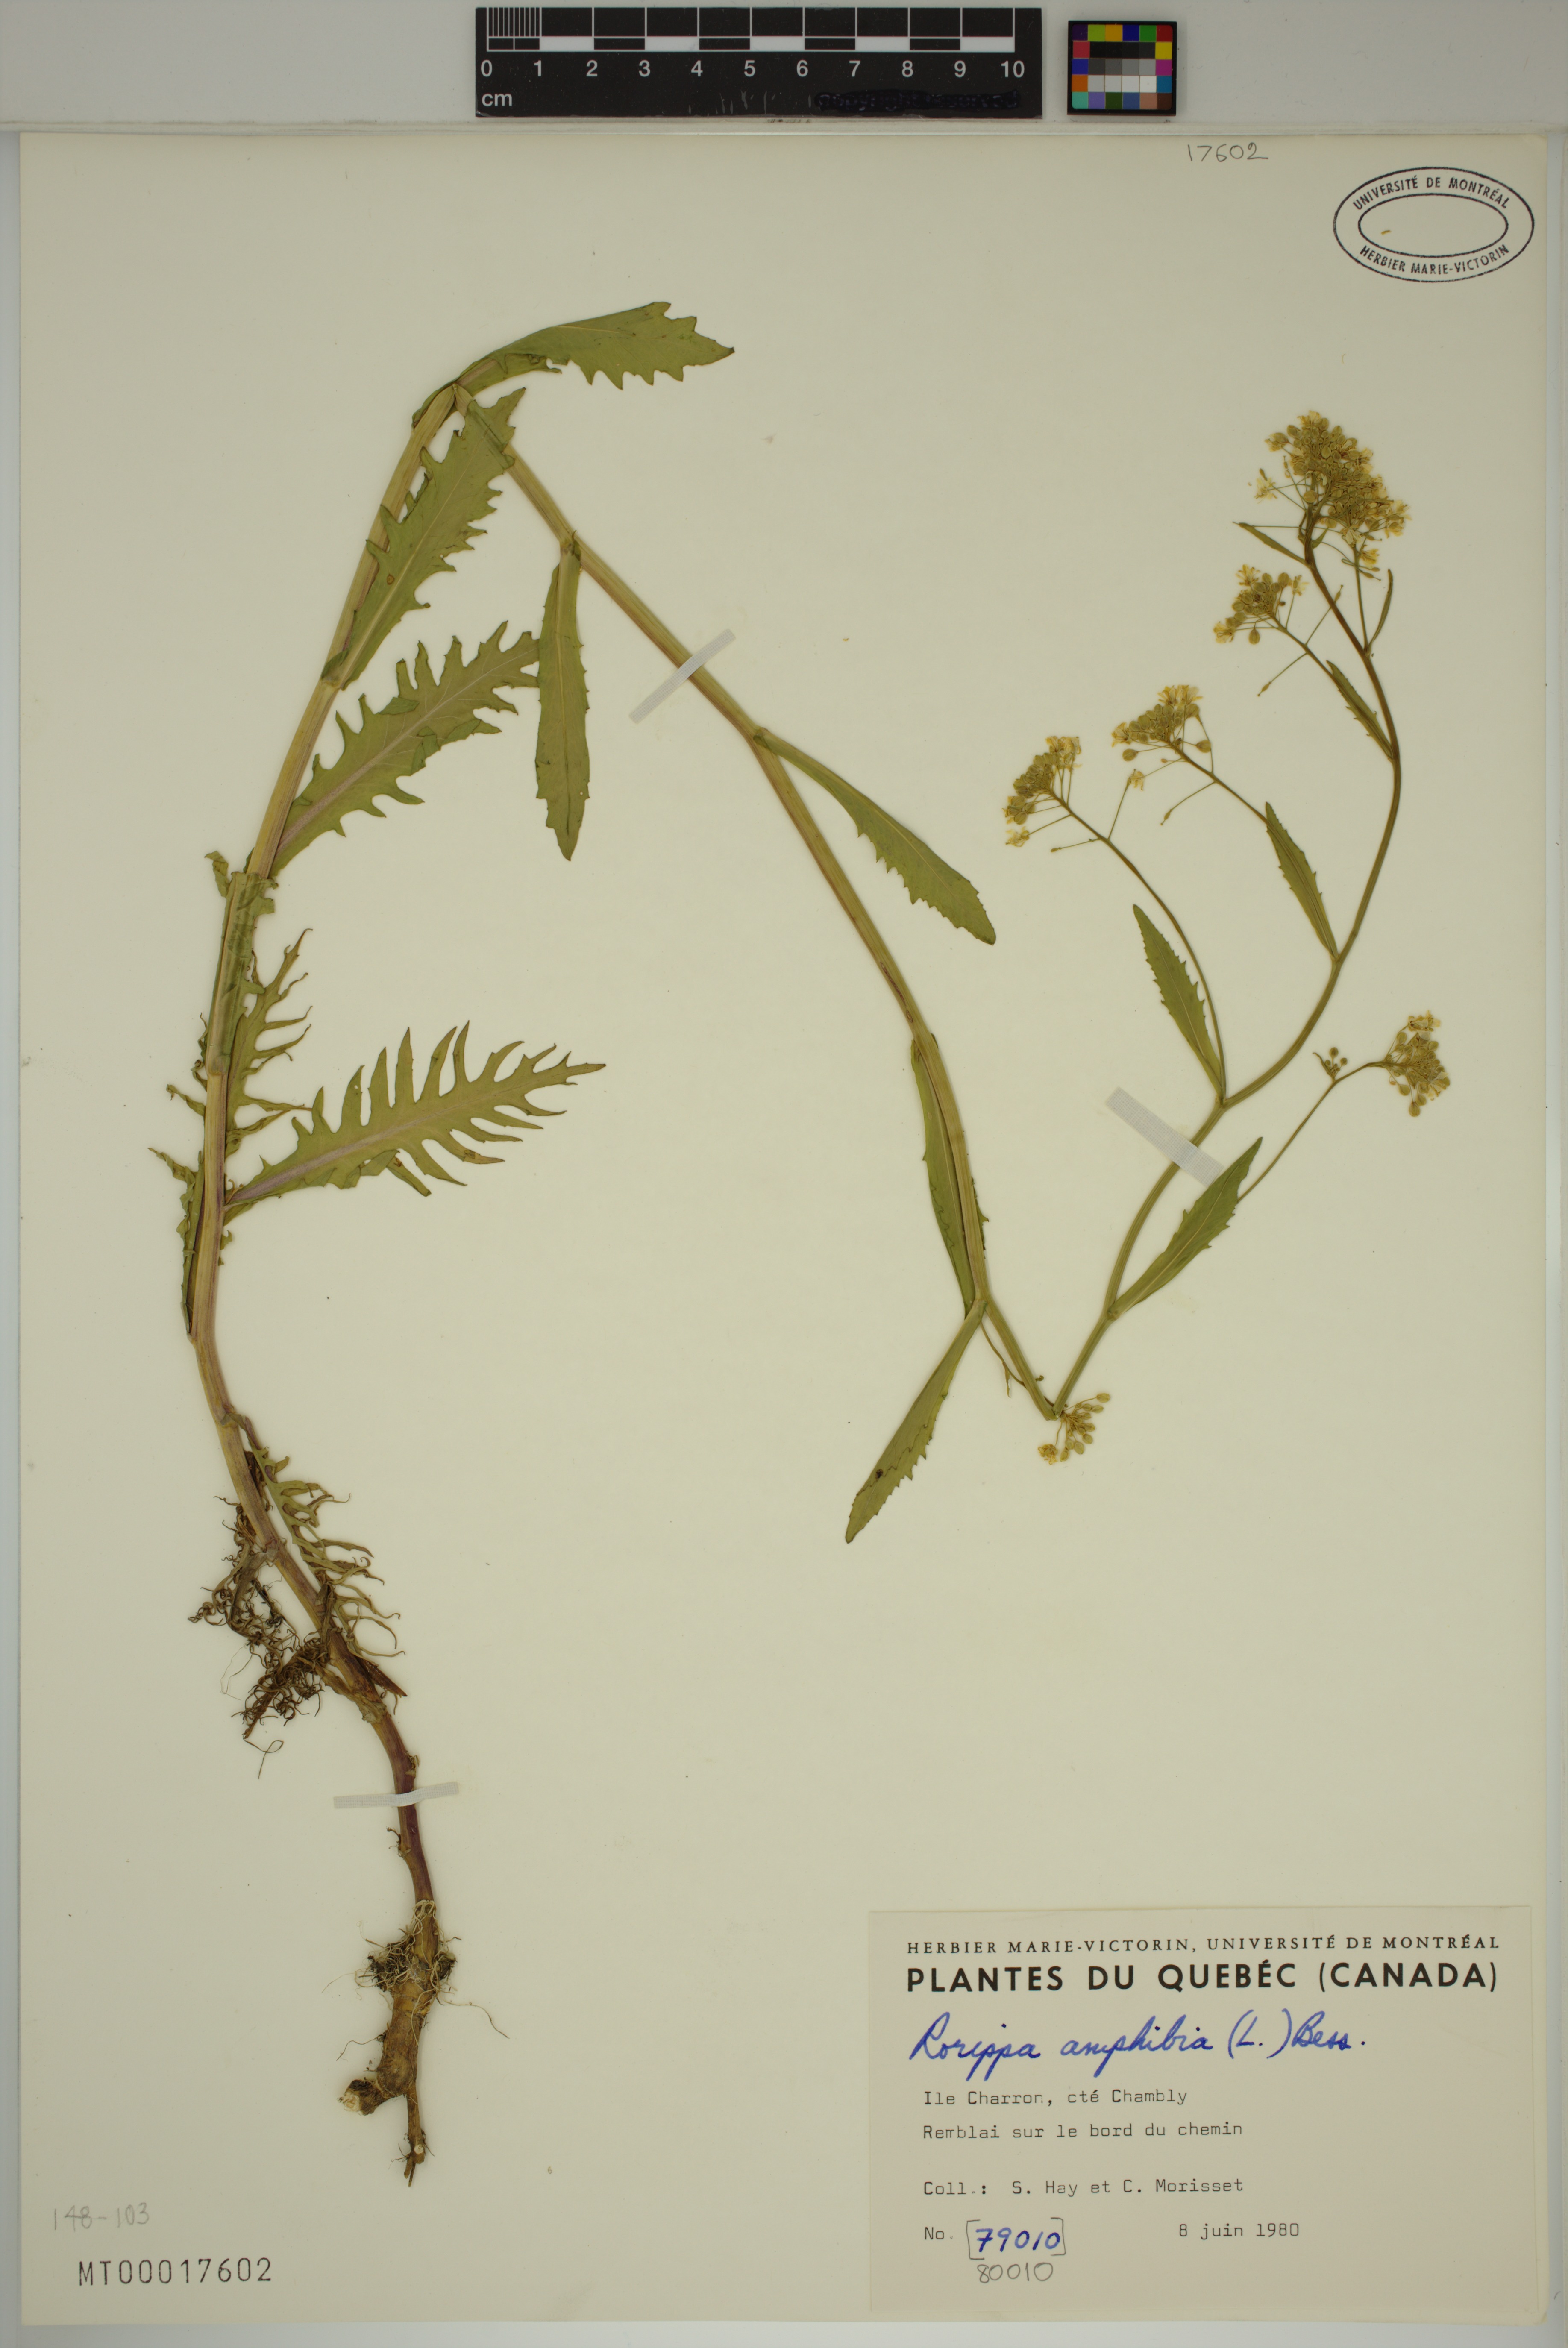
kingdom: Plantae
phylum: Tracheophyta
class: Magnoliopsida
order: Brassicales
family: Brassicaceae
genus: Rorippa
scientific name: Rorippa amphibia
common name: Great yellow-cress
